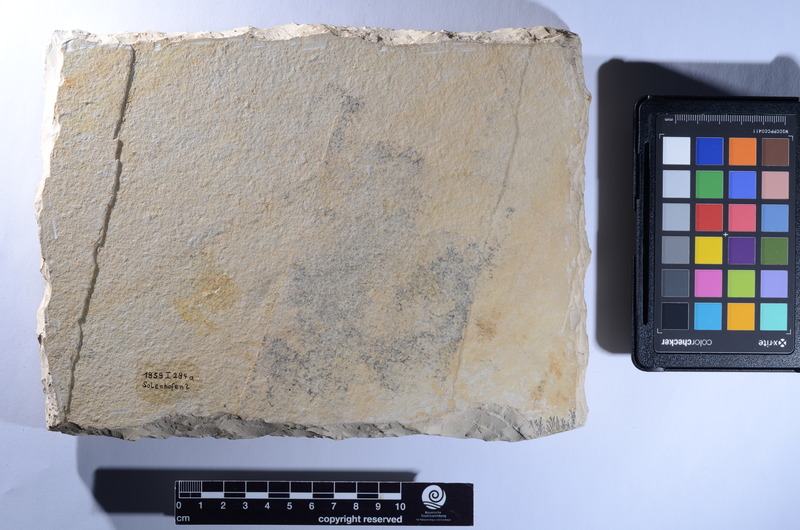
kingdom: Animalia
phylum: Chordata
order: Amiiformes
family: Caturidae
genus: Caturus
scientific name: Caturus
